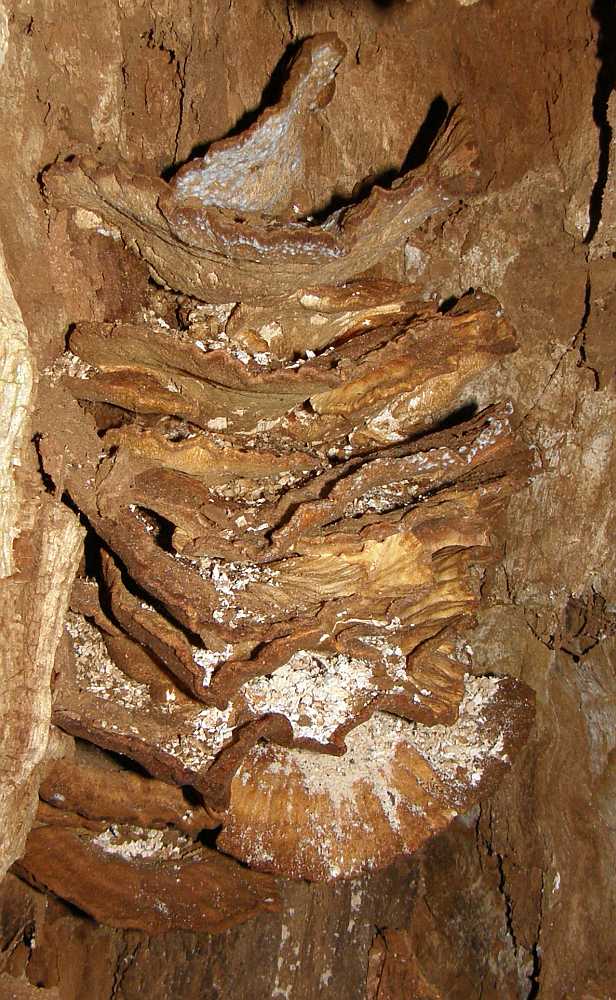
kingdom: Fungi
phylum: Basidiomycota
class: Agaricomycetes
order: Polyporales
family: Laetiporaceae
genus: Laetiporus
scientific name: Laetiporus sulphureus
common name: svovlporesvamp
